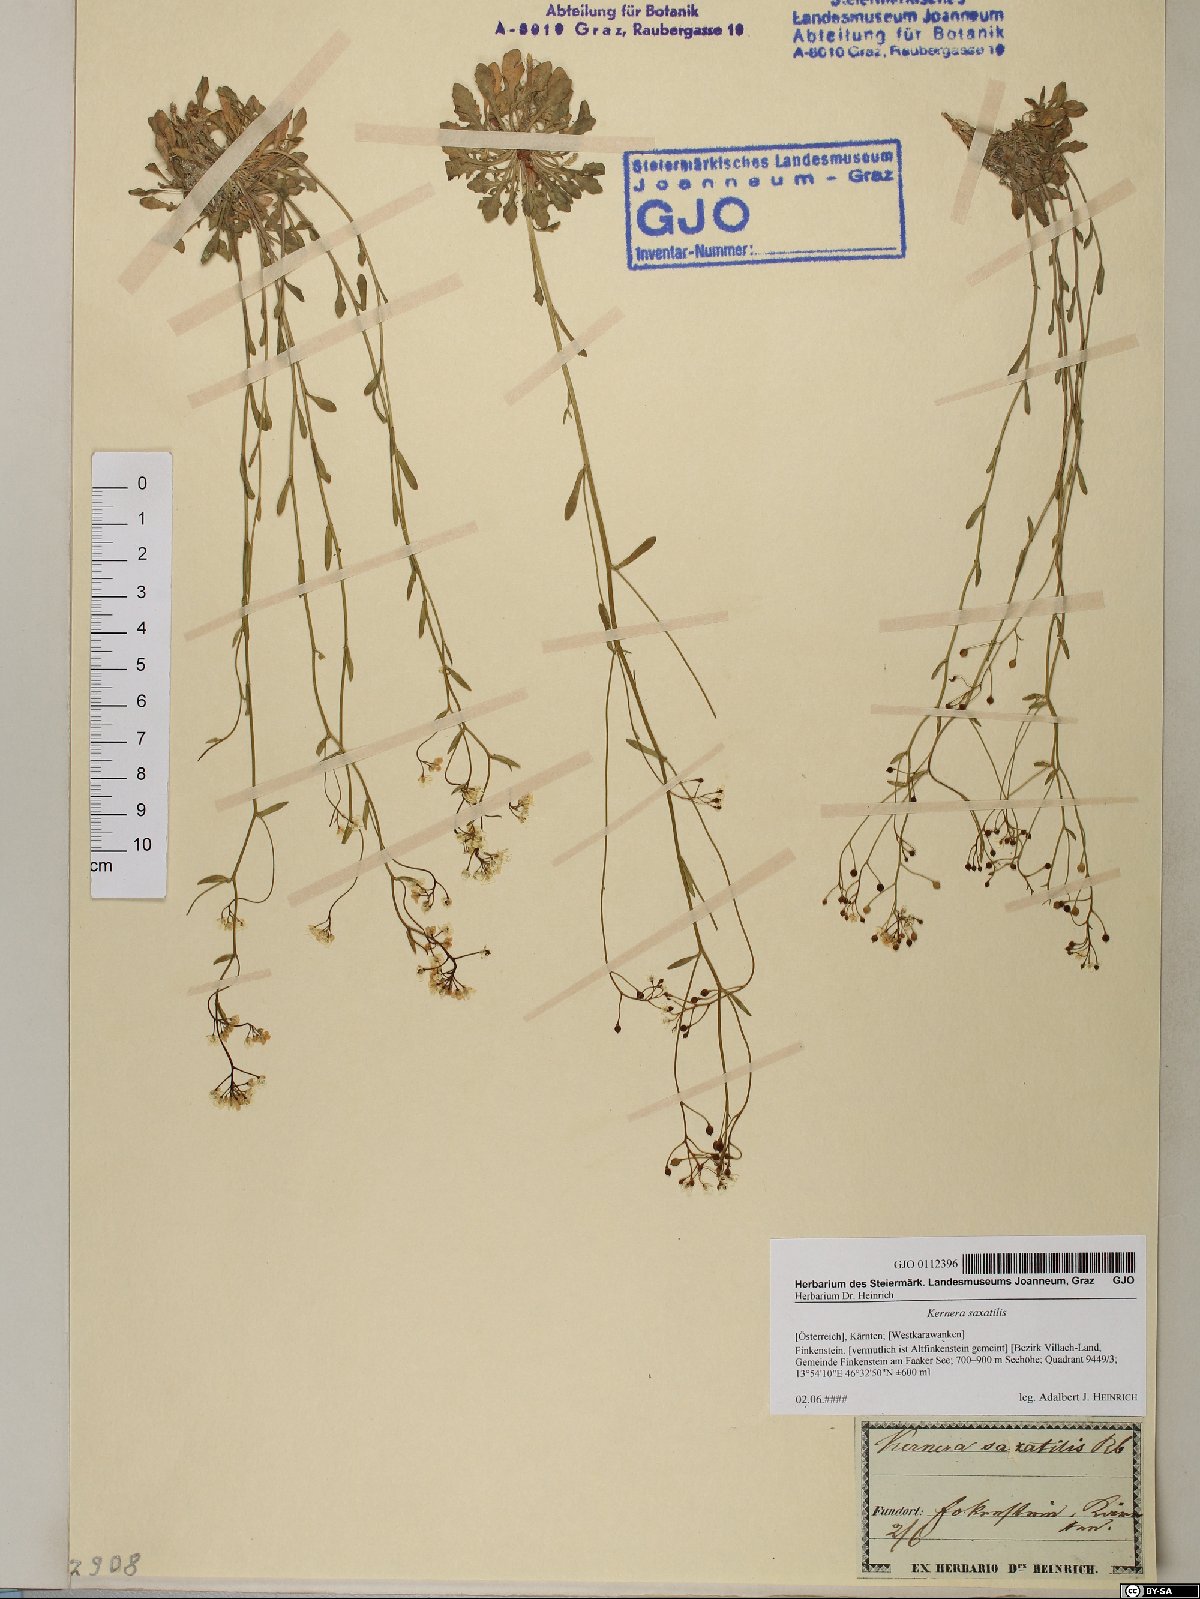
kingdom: Plantae
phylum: Tracheophyta
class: Magnoliopsida
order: Brassicales
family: Brassicaceae
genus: Kernera
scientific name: Kernera saxatilis
